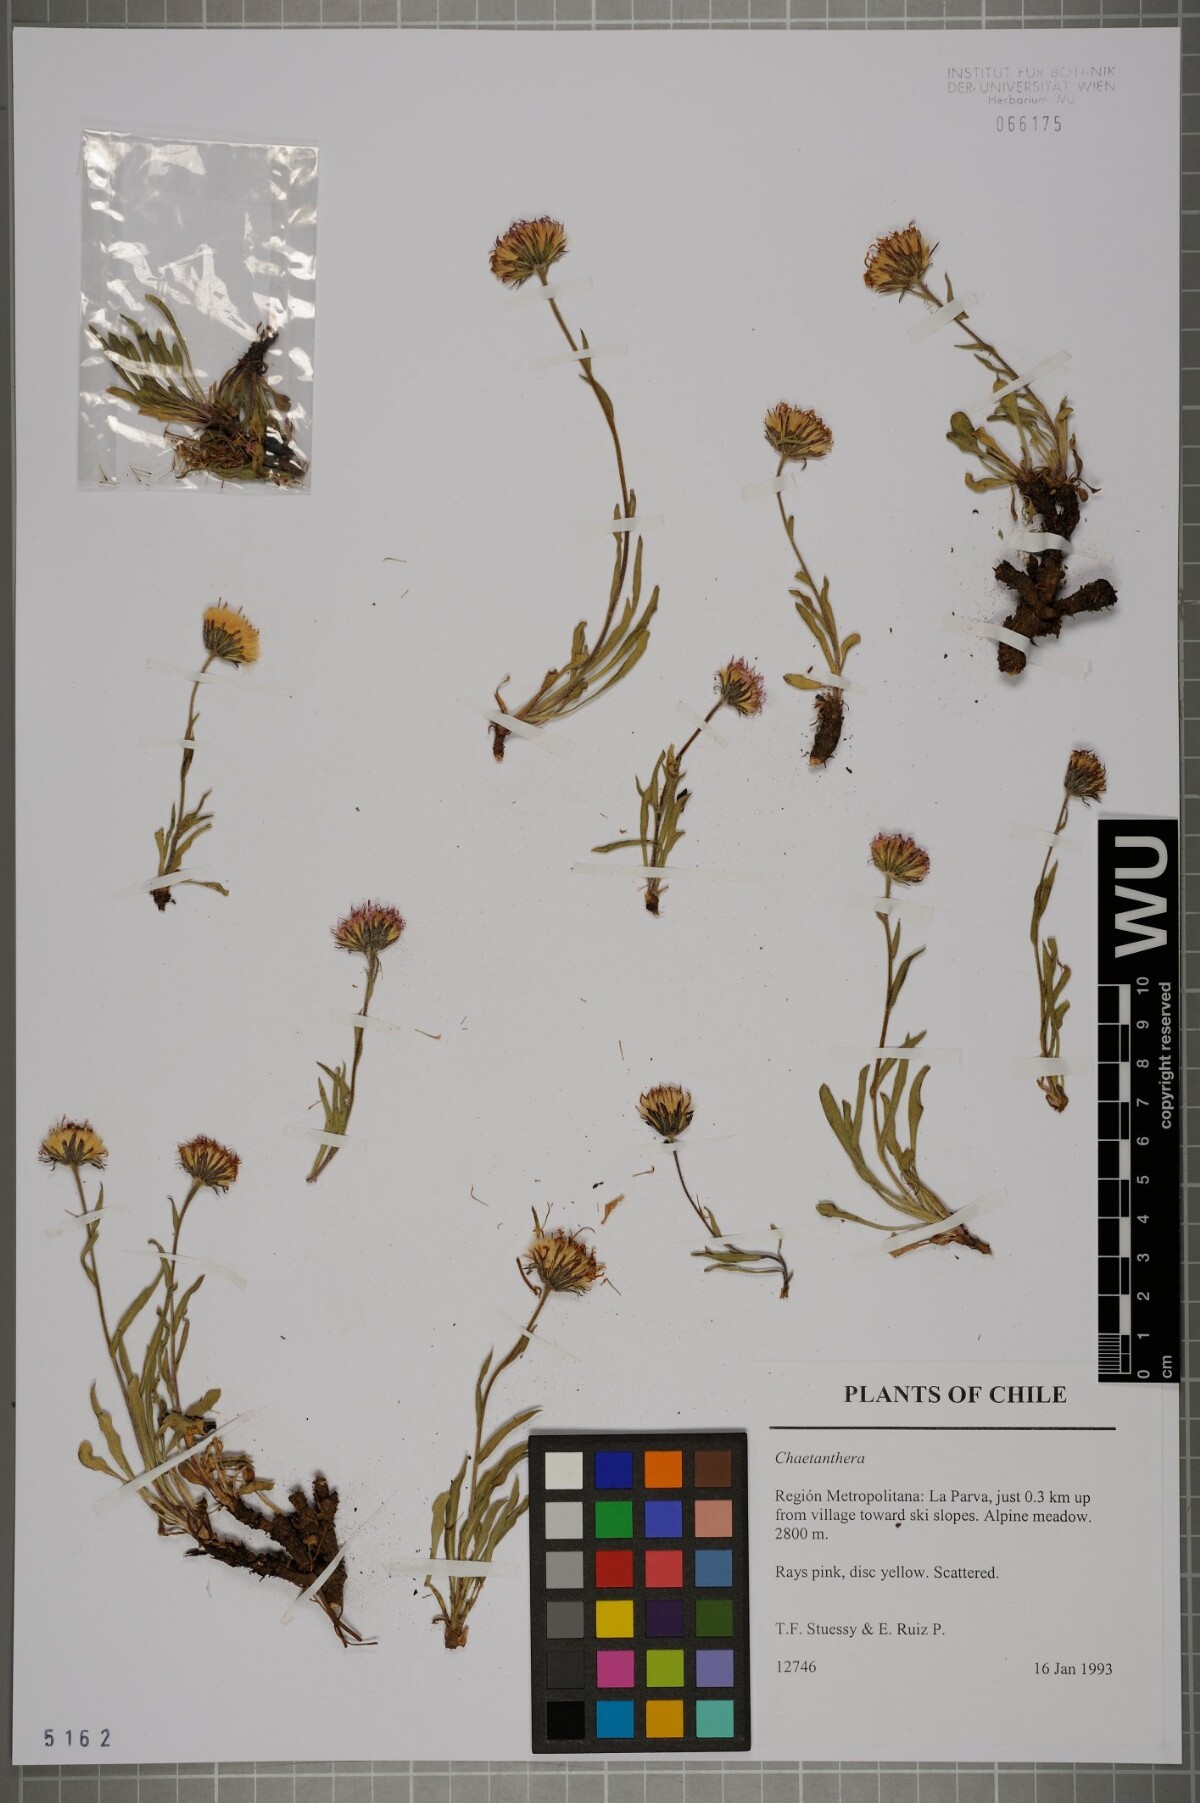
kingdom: Plantae
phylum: Tracheophyta
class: Magnoliopsida
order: Asterales
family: Asteraceae
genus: Chaetanthera
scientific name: Chaetanthera
